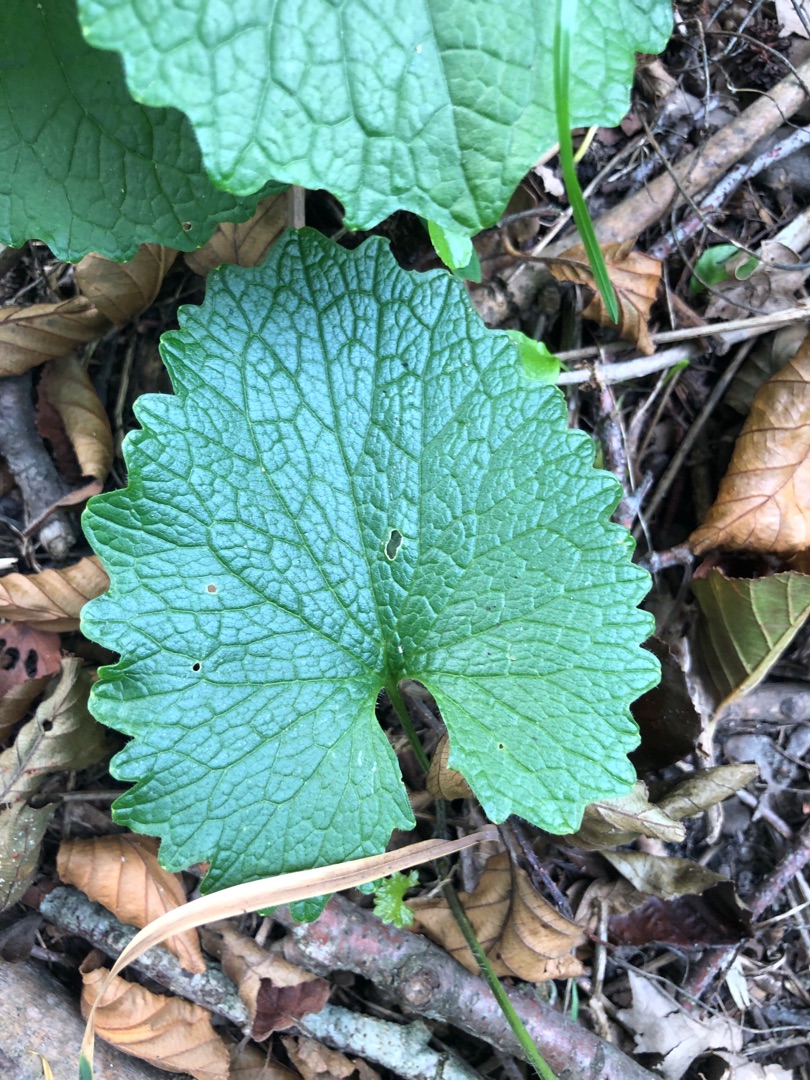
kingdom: Plantae
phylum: Tracheophyta
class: Magnoliopsida
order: Brassicales
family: Brassicaceae
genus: Alliaria
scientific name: Alliaria petiolata
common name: Løgkarse
